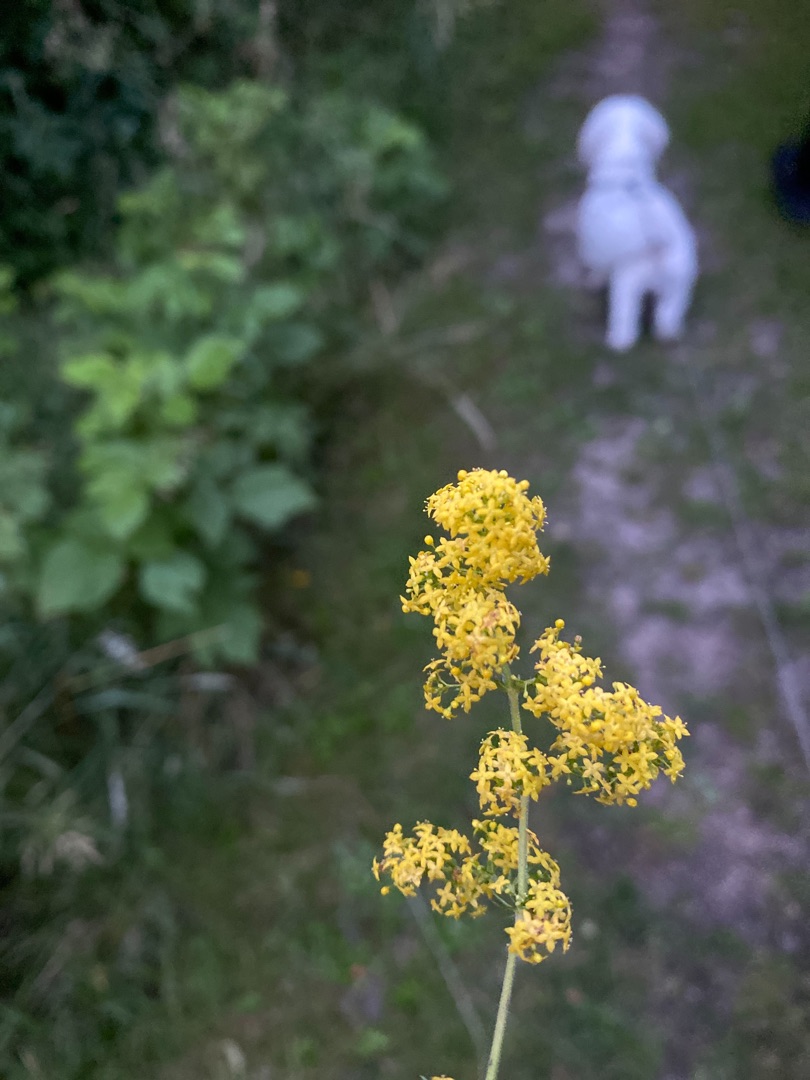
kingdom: Plantae
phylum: Tracheophyta
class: Magnoliopsida
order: Gentianales
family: Rubiaceae
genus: Galium
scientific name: Galium verum
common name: Gul snerre
